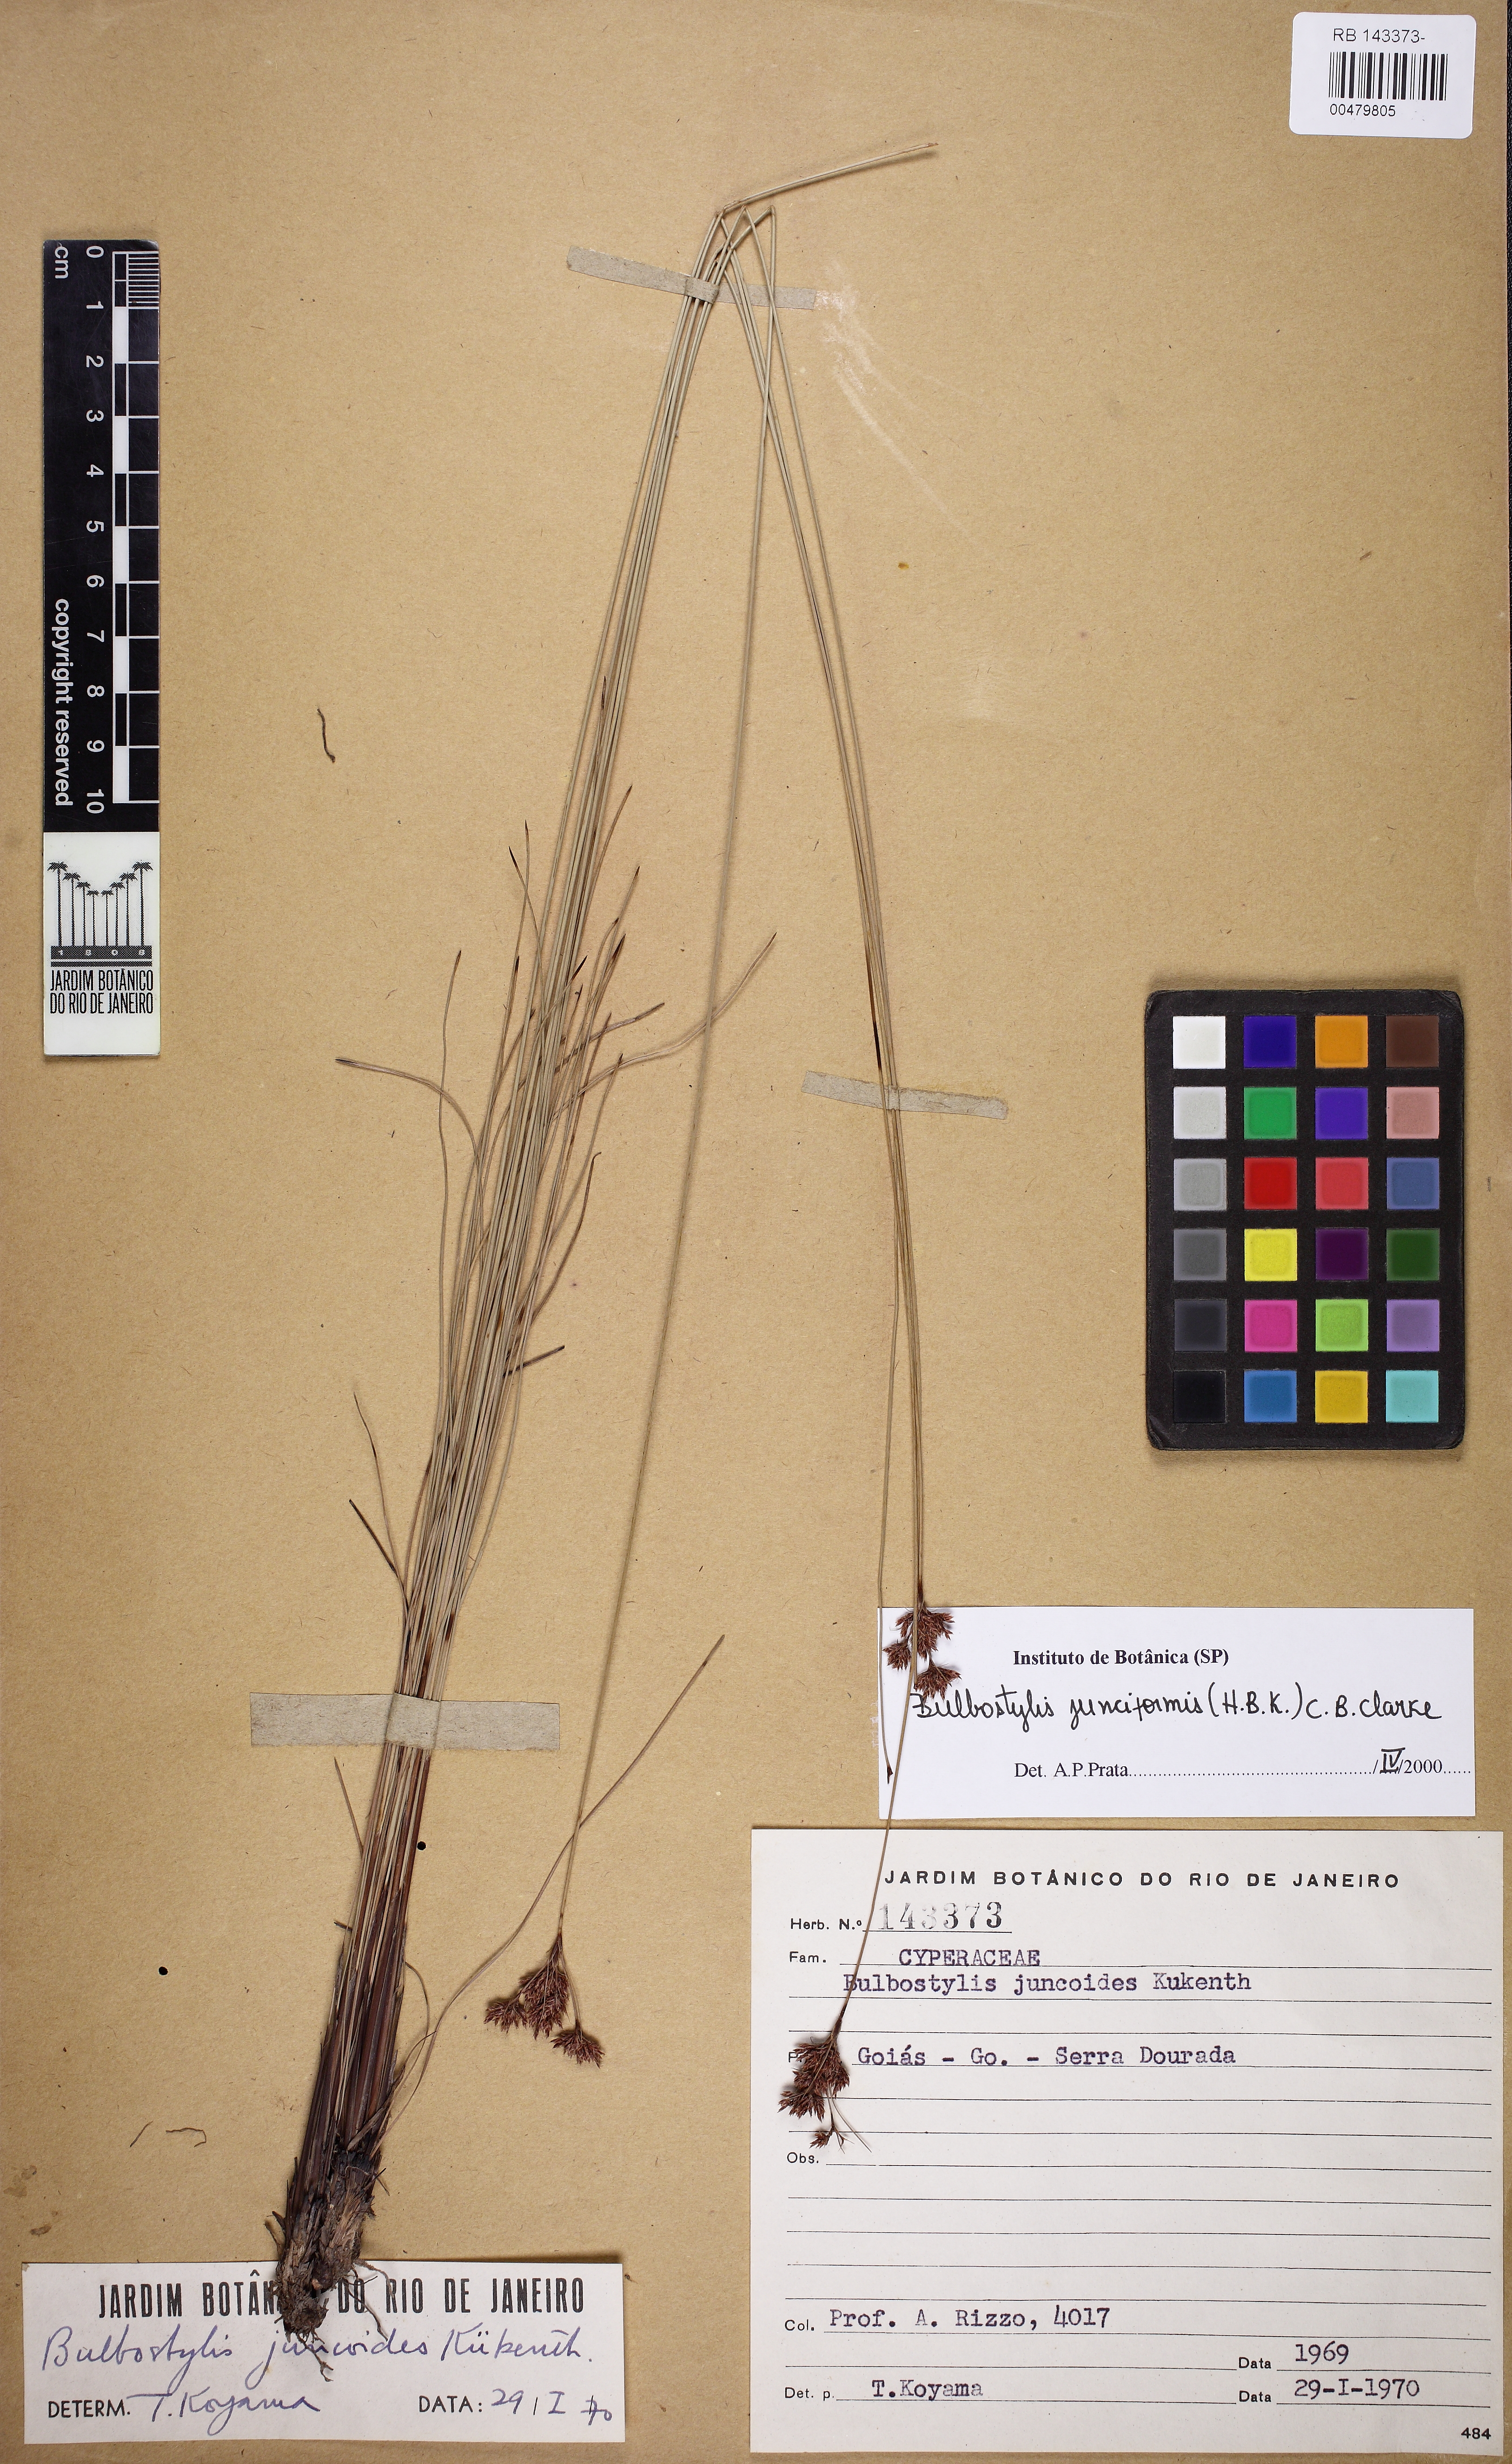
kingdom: Plantae
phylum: Tracheophyta
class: Liliopsida
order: Poales
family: Cyperaceae
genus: Bulbostylis
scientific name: Bulbostylis junciformis
